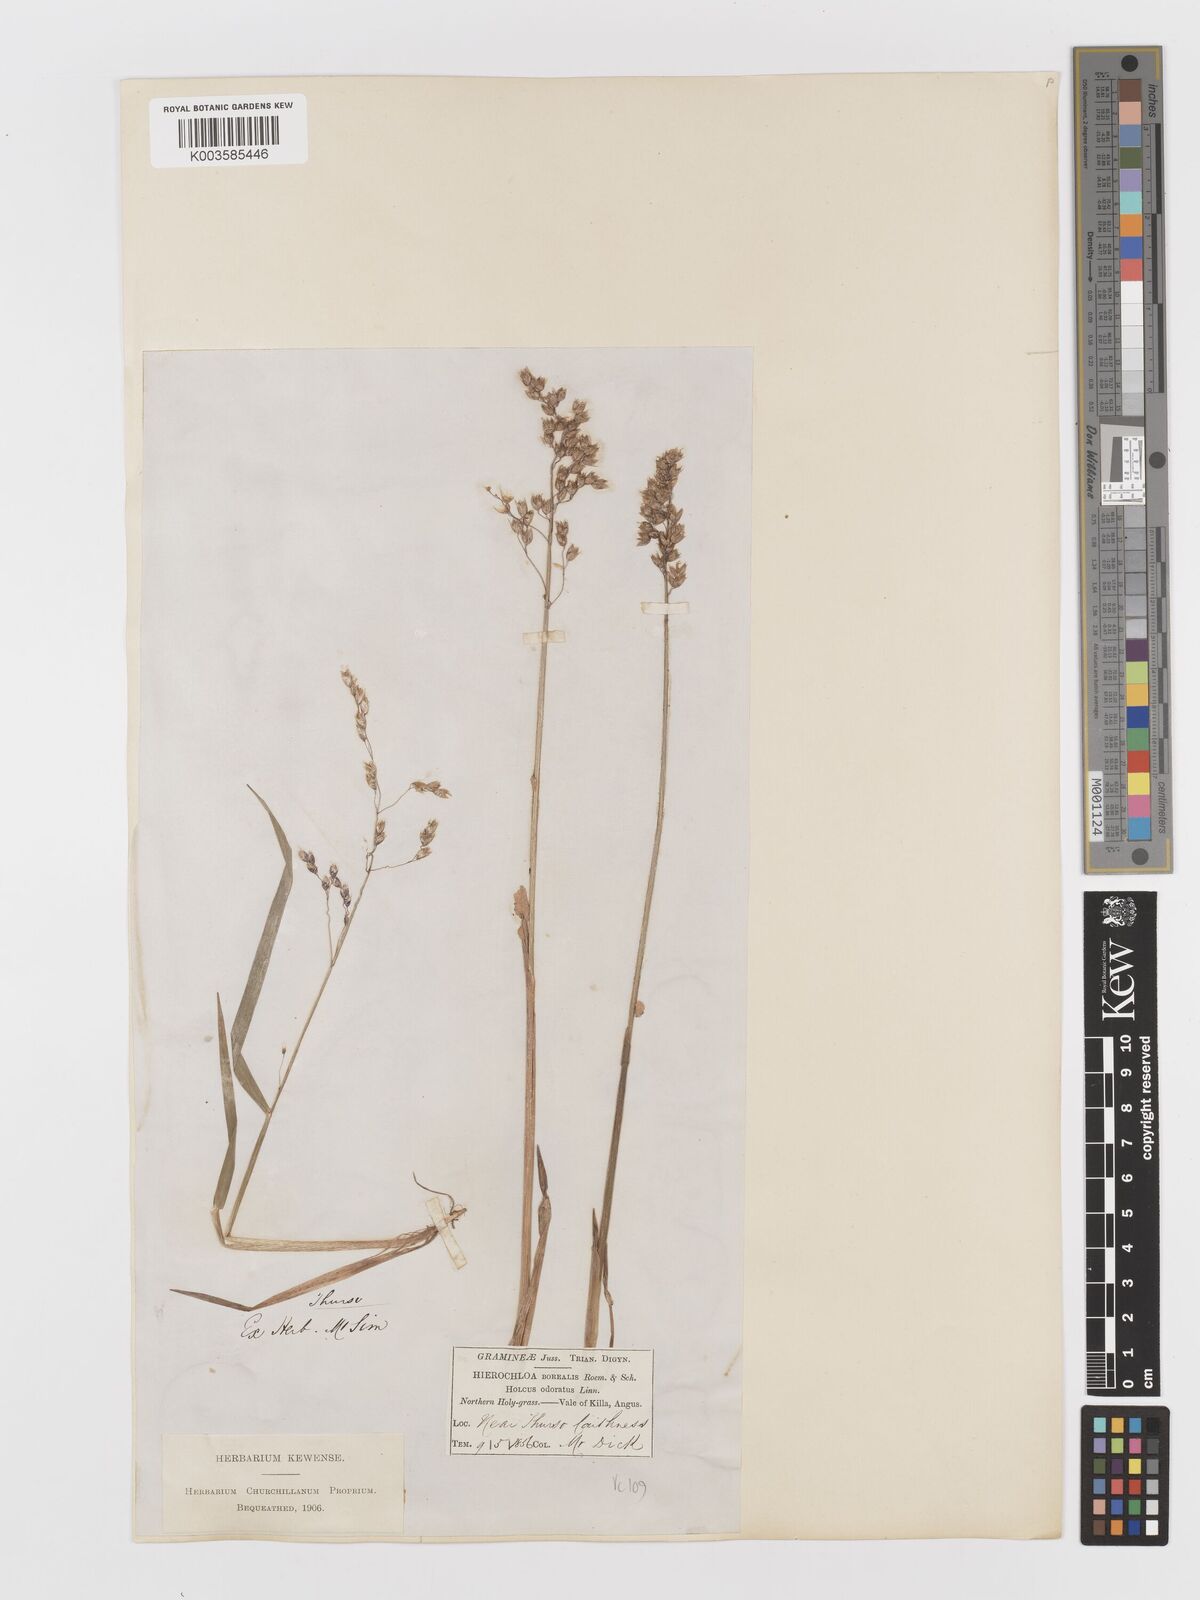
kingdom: Plantae
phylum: Tracheophyta
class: Liliopsida
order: Poales
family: Poaceae
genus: Anthoxanthum
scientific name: Anthoxanthum nitens
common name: Holy grass
